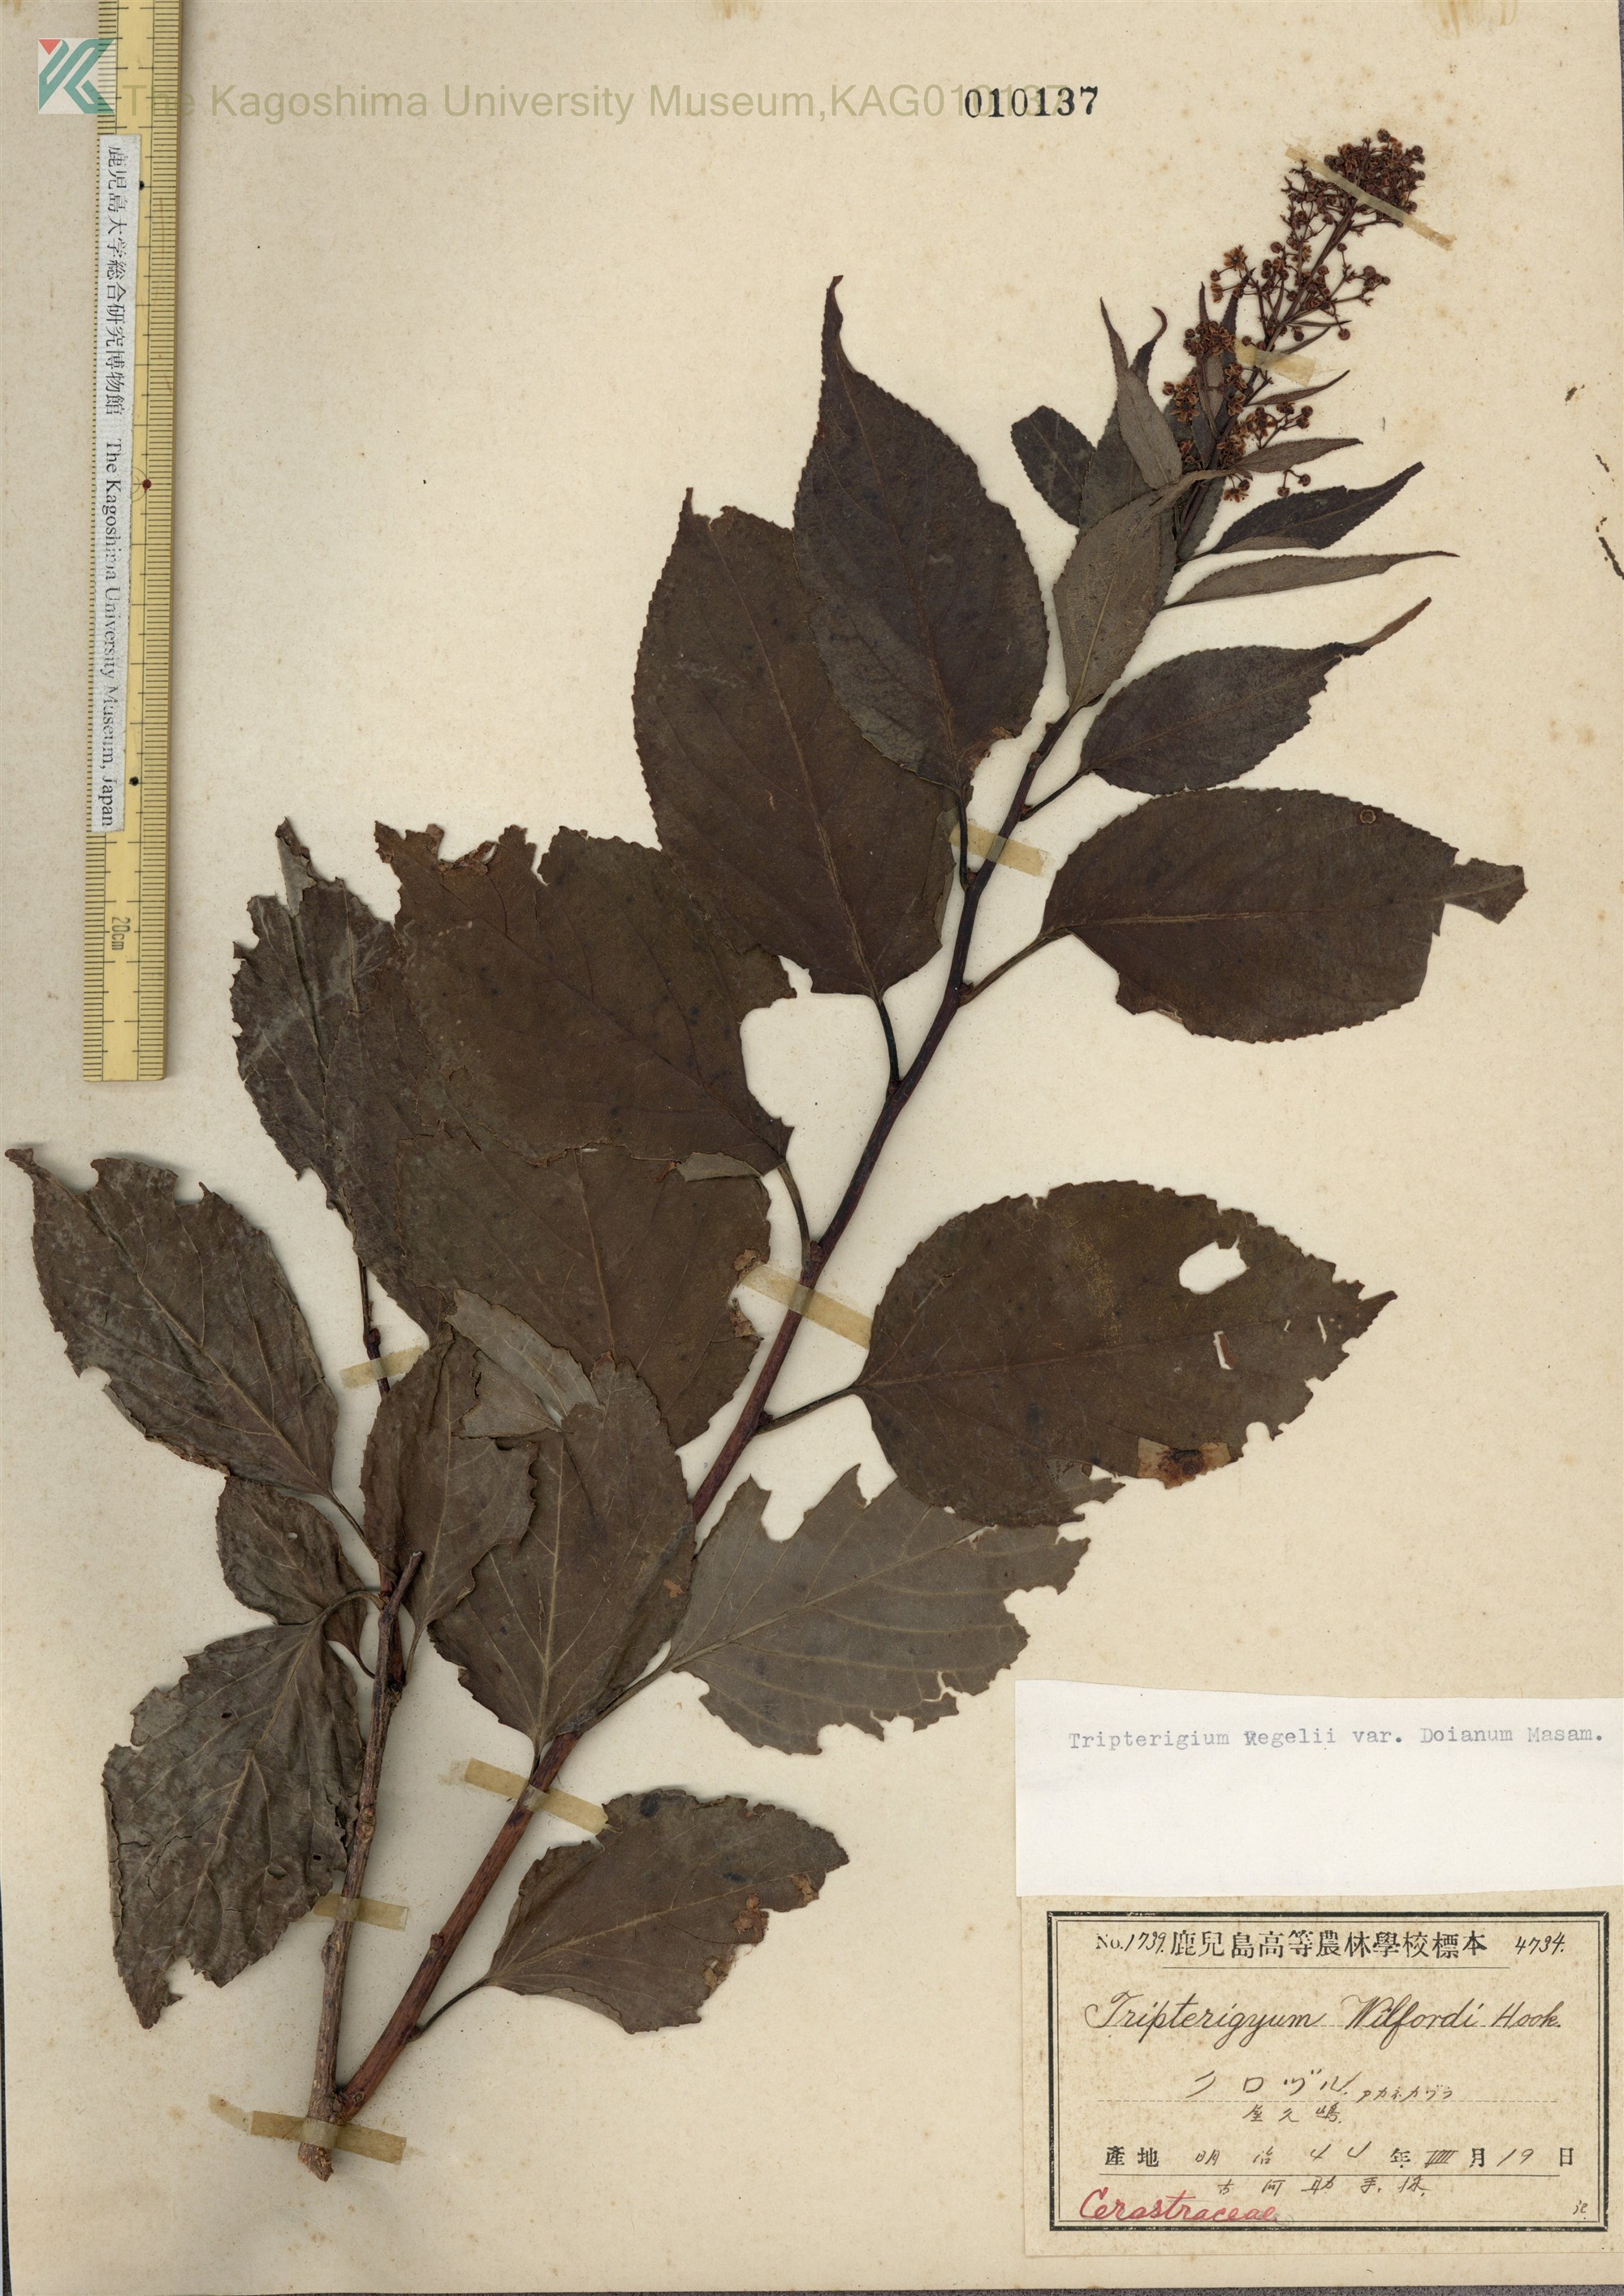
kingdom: Plantae
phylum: Tracheophyta
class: Magnoliopsida
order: Celastrales
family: Celastraceae
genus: Tripterygium
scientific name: Tripterygium doianum
